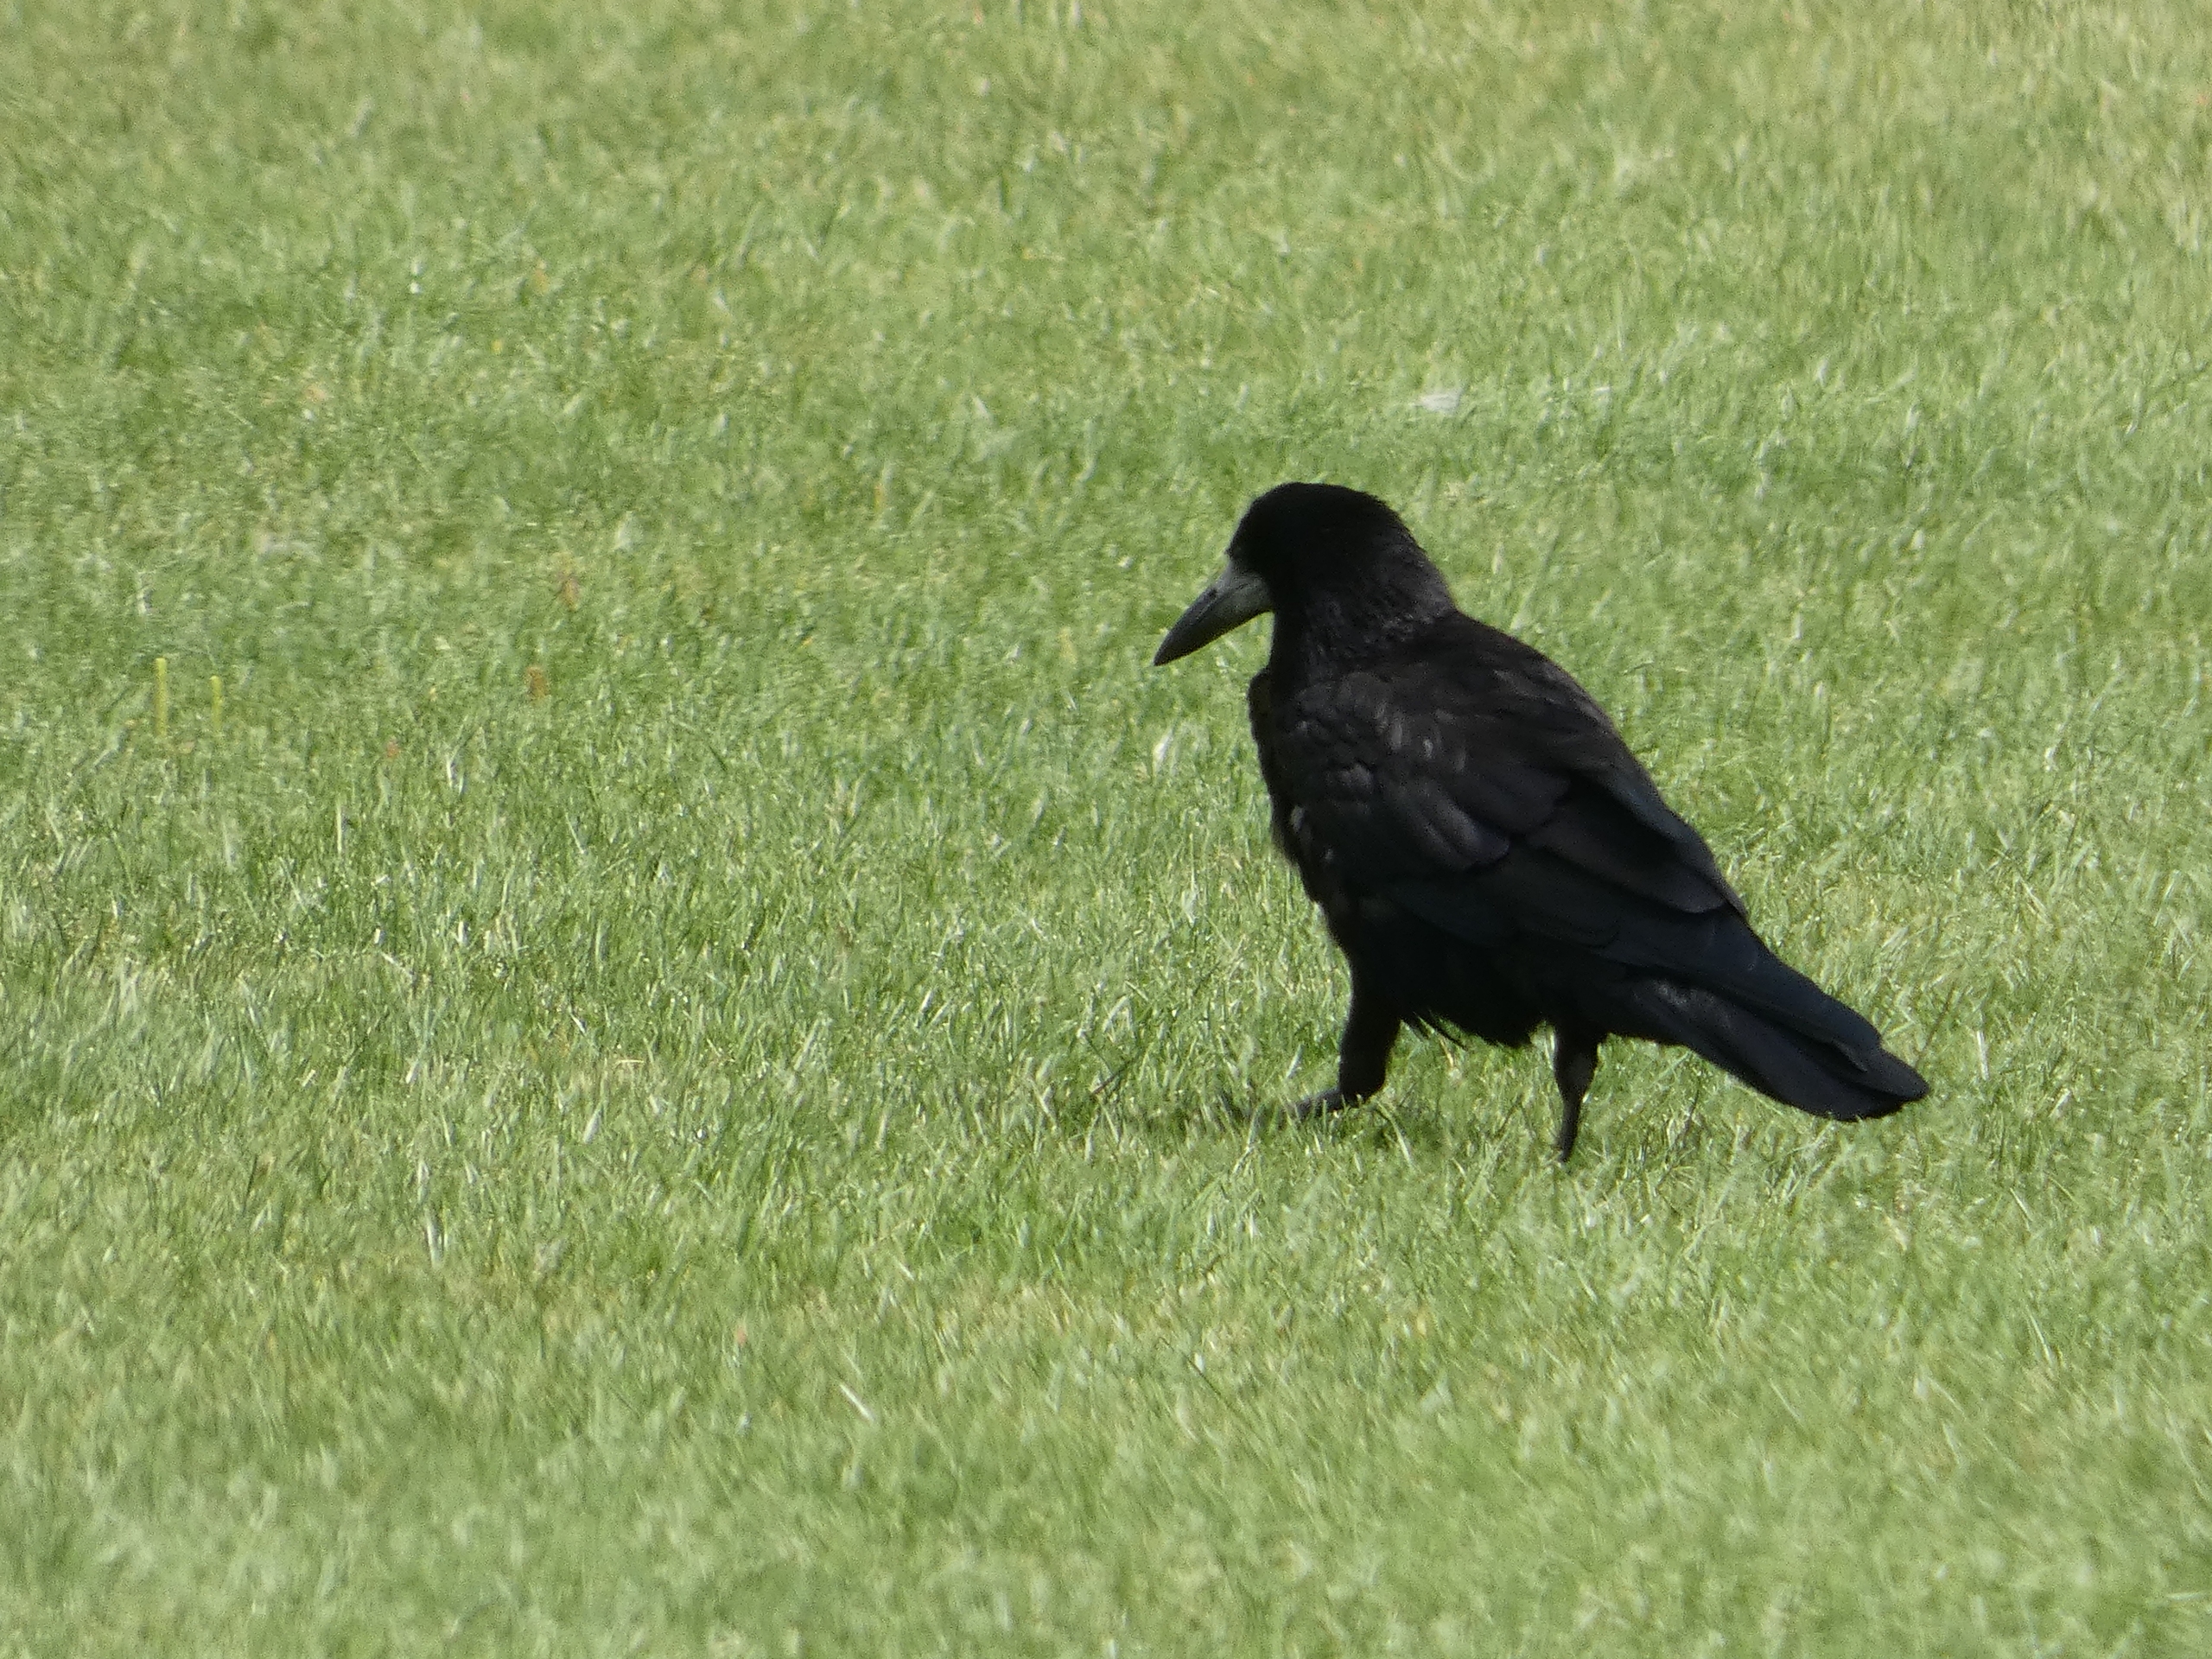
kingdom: Animalia
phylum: Chordata
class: Aves
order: Passeriformes
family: Corvidae
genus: Corvus
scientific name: Corvus frugilegus
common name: Råge
